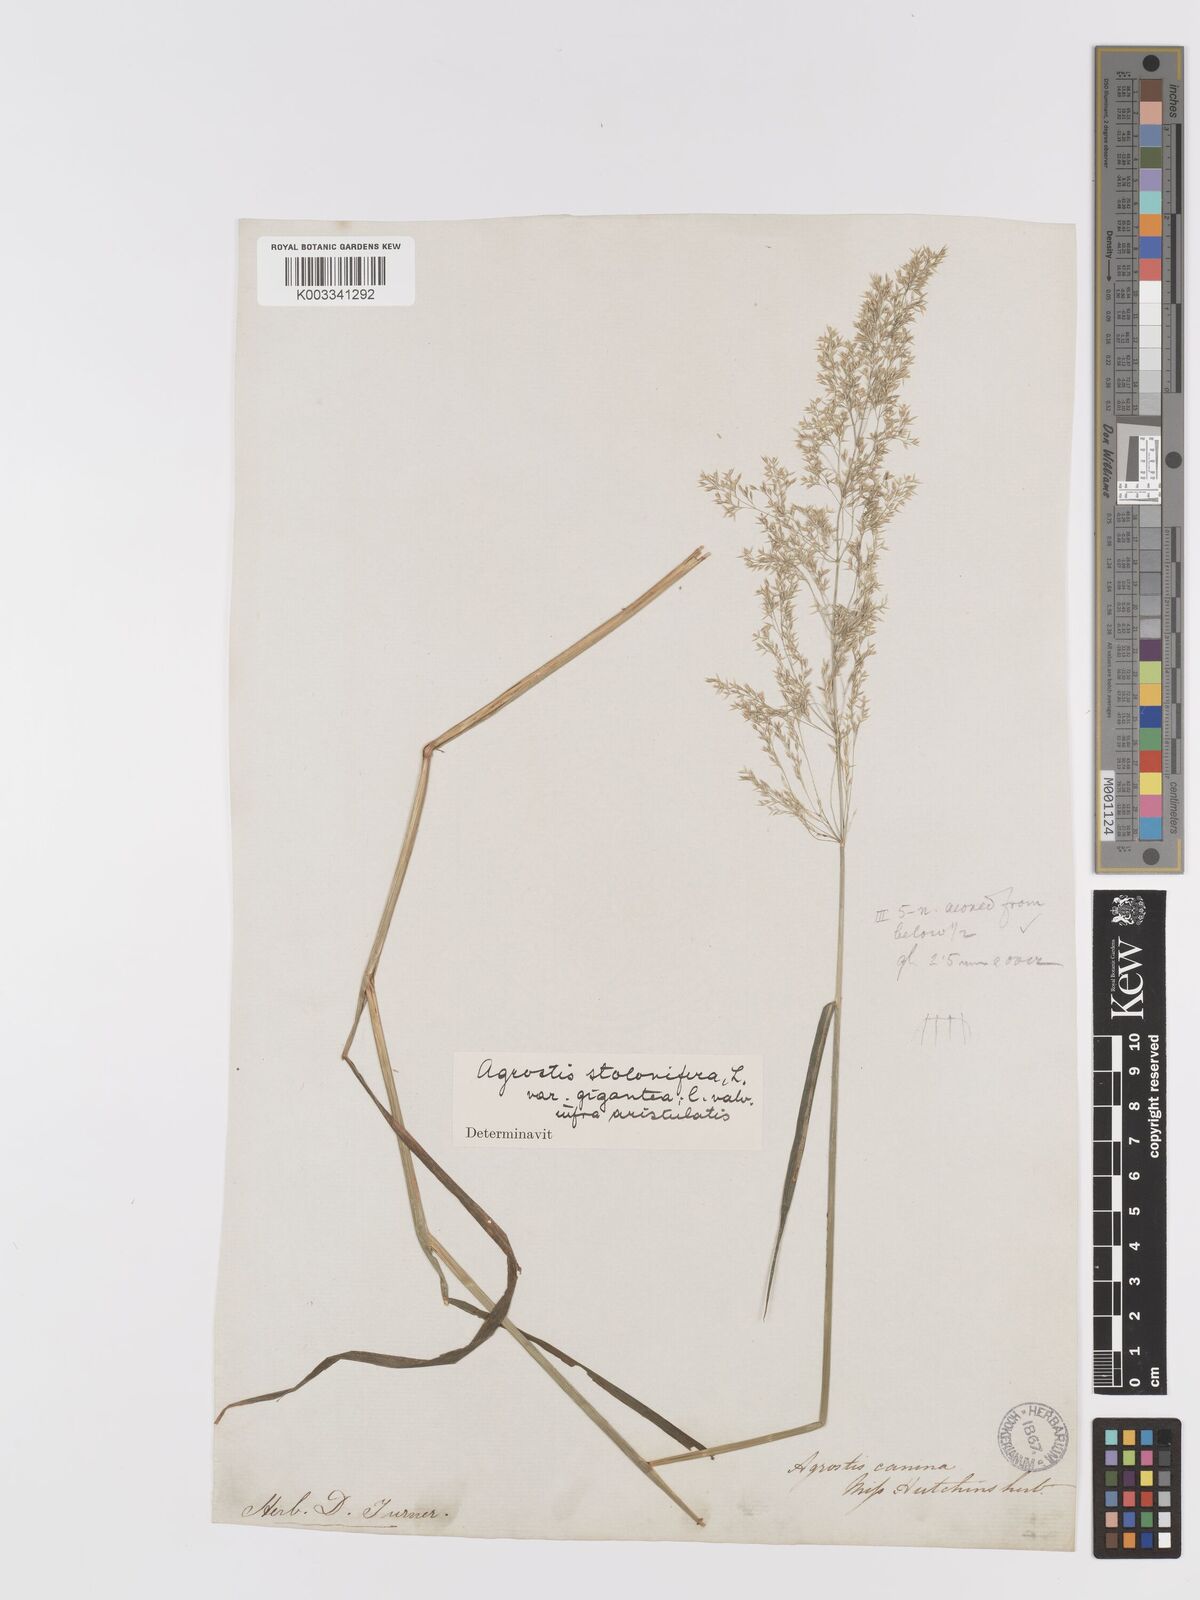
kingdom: Plantae
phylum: Tracheophyta
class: Liliopsida
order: Poales
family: Poaceae
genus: Agrostis
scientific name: Agrostis gigantea
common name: Black bent
